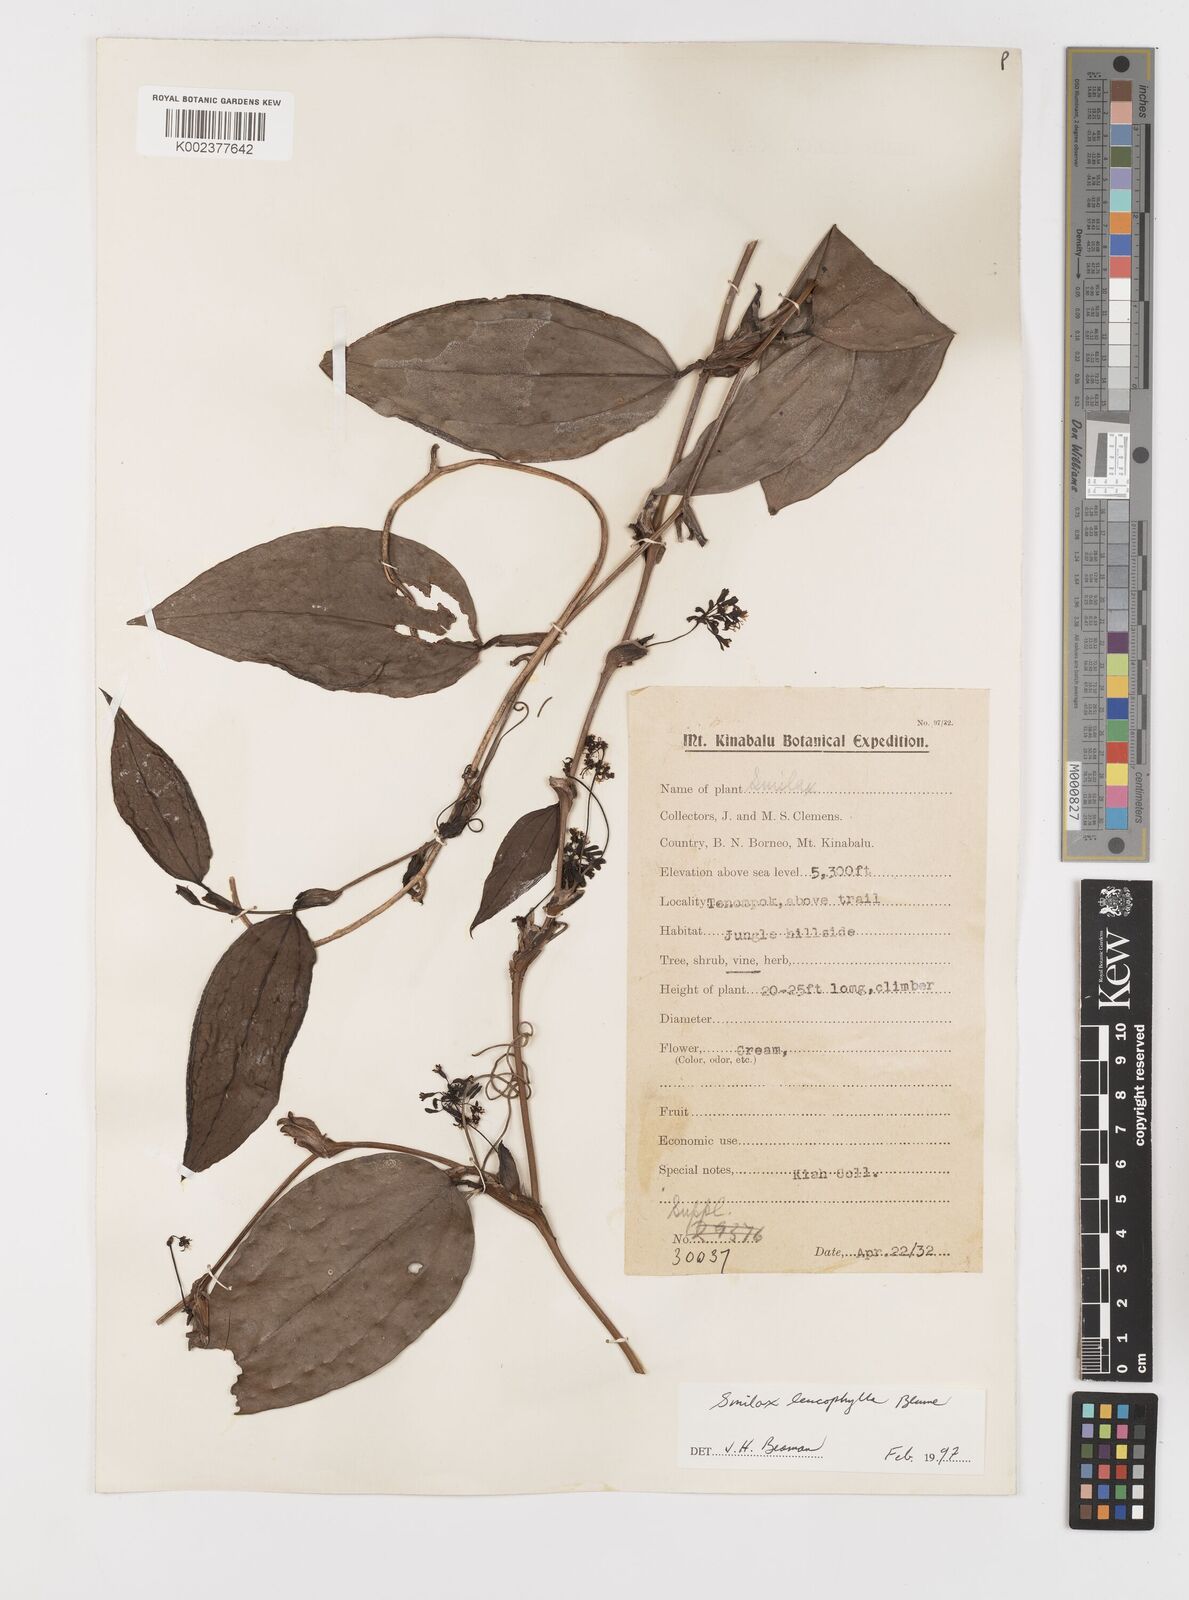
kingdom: Plantae
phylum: Tracheophyta
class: Liliopsida
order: Liliales
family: Smilacaceae
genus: Smilax
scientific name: Smilax leucophylla
